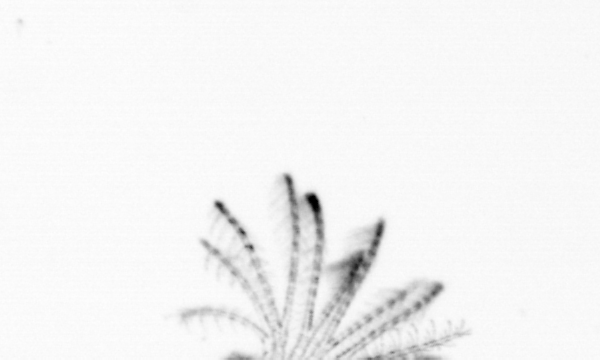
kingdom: Animalia
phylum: Arthropoda
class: Maxillopoda
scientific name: Maxillopoda
